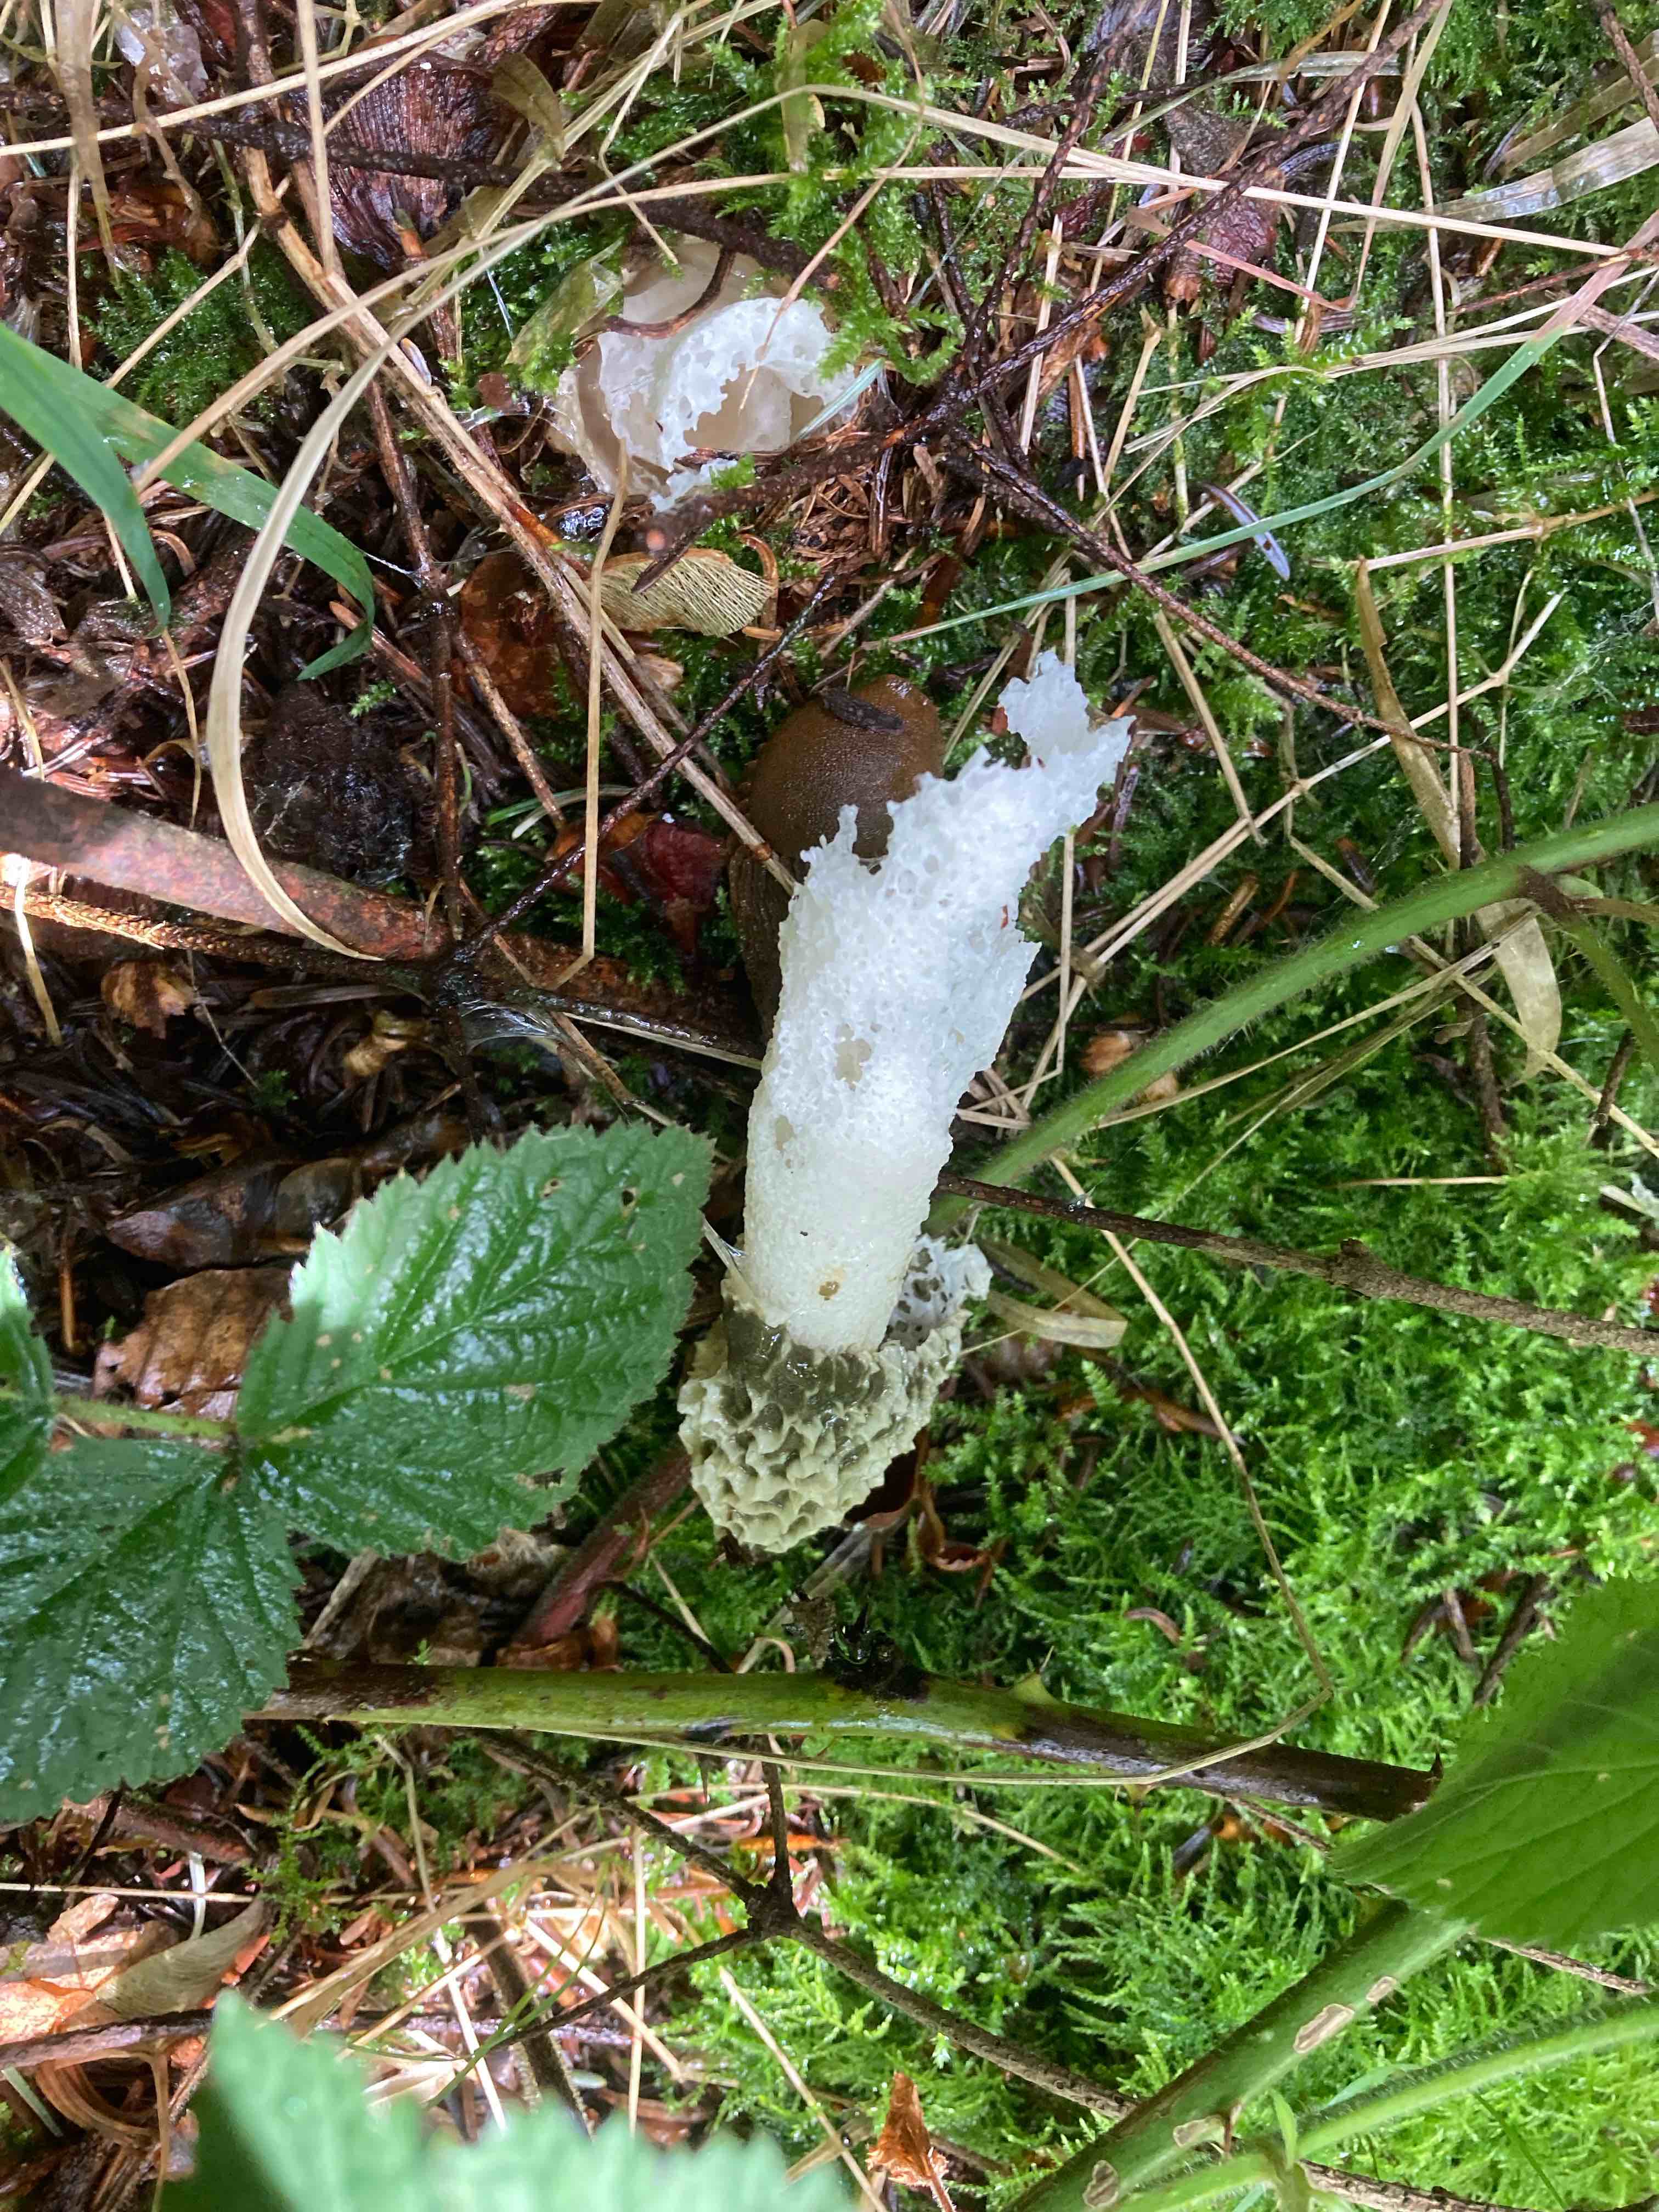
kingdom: Fungi
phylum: Basidiomycota
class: Agaricomycetes
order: Phallales
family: Phallaceae
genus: Phallus
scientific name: Phallus impudicus
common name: almindelig stinksvamp
